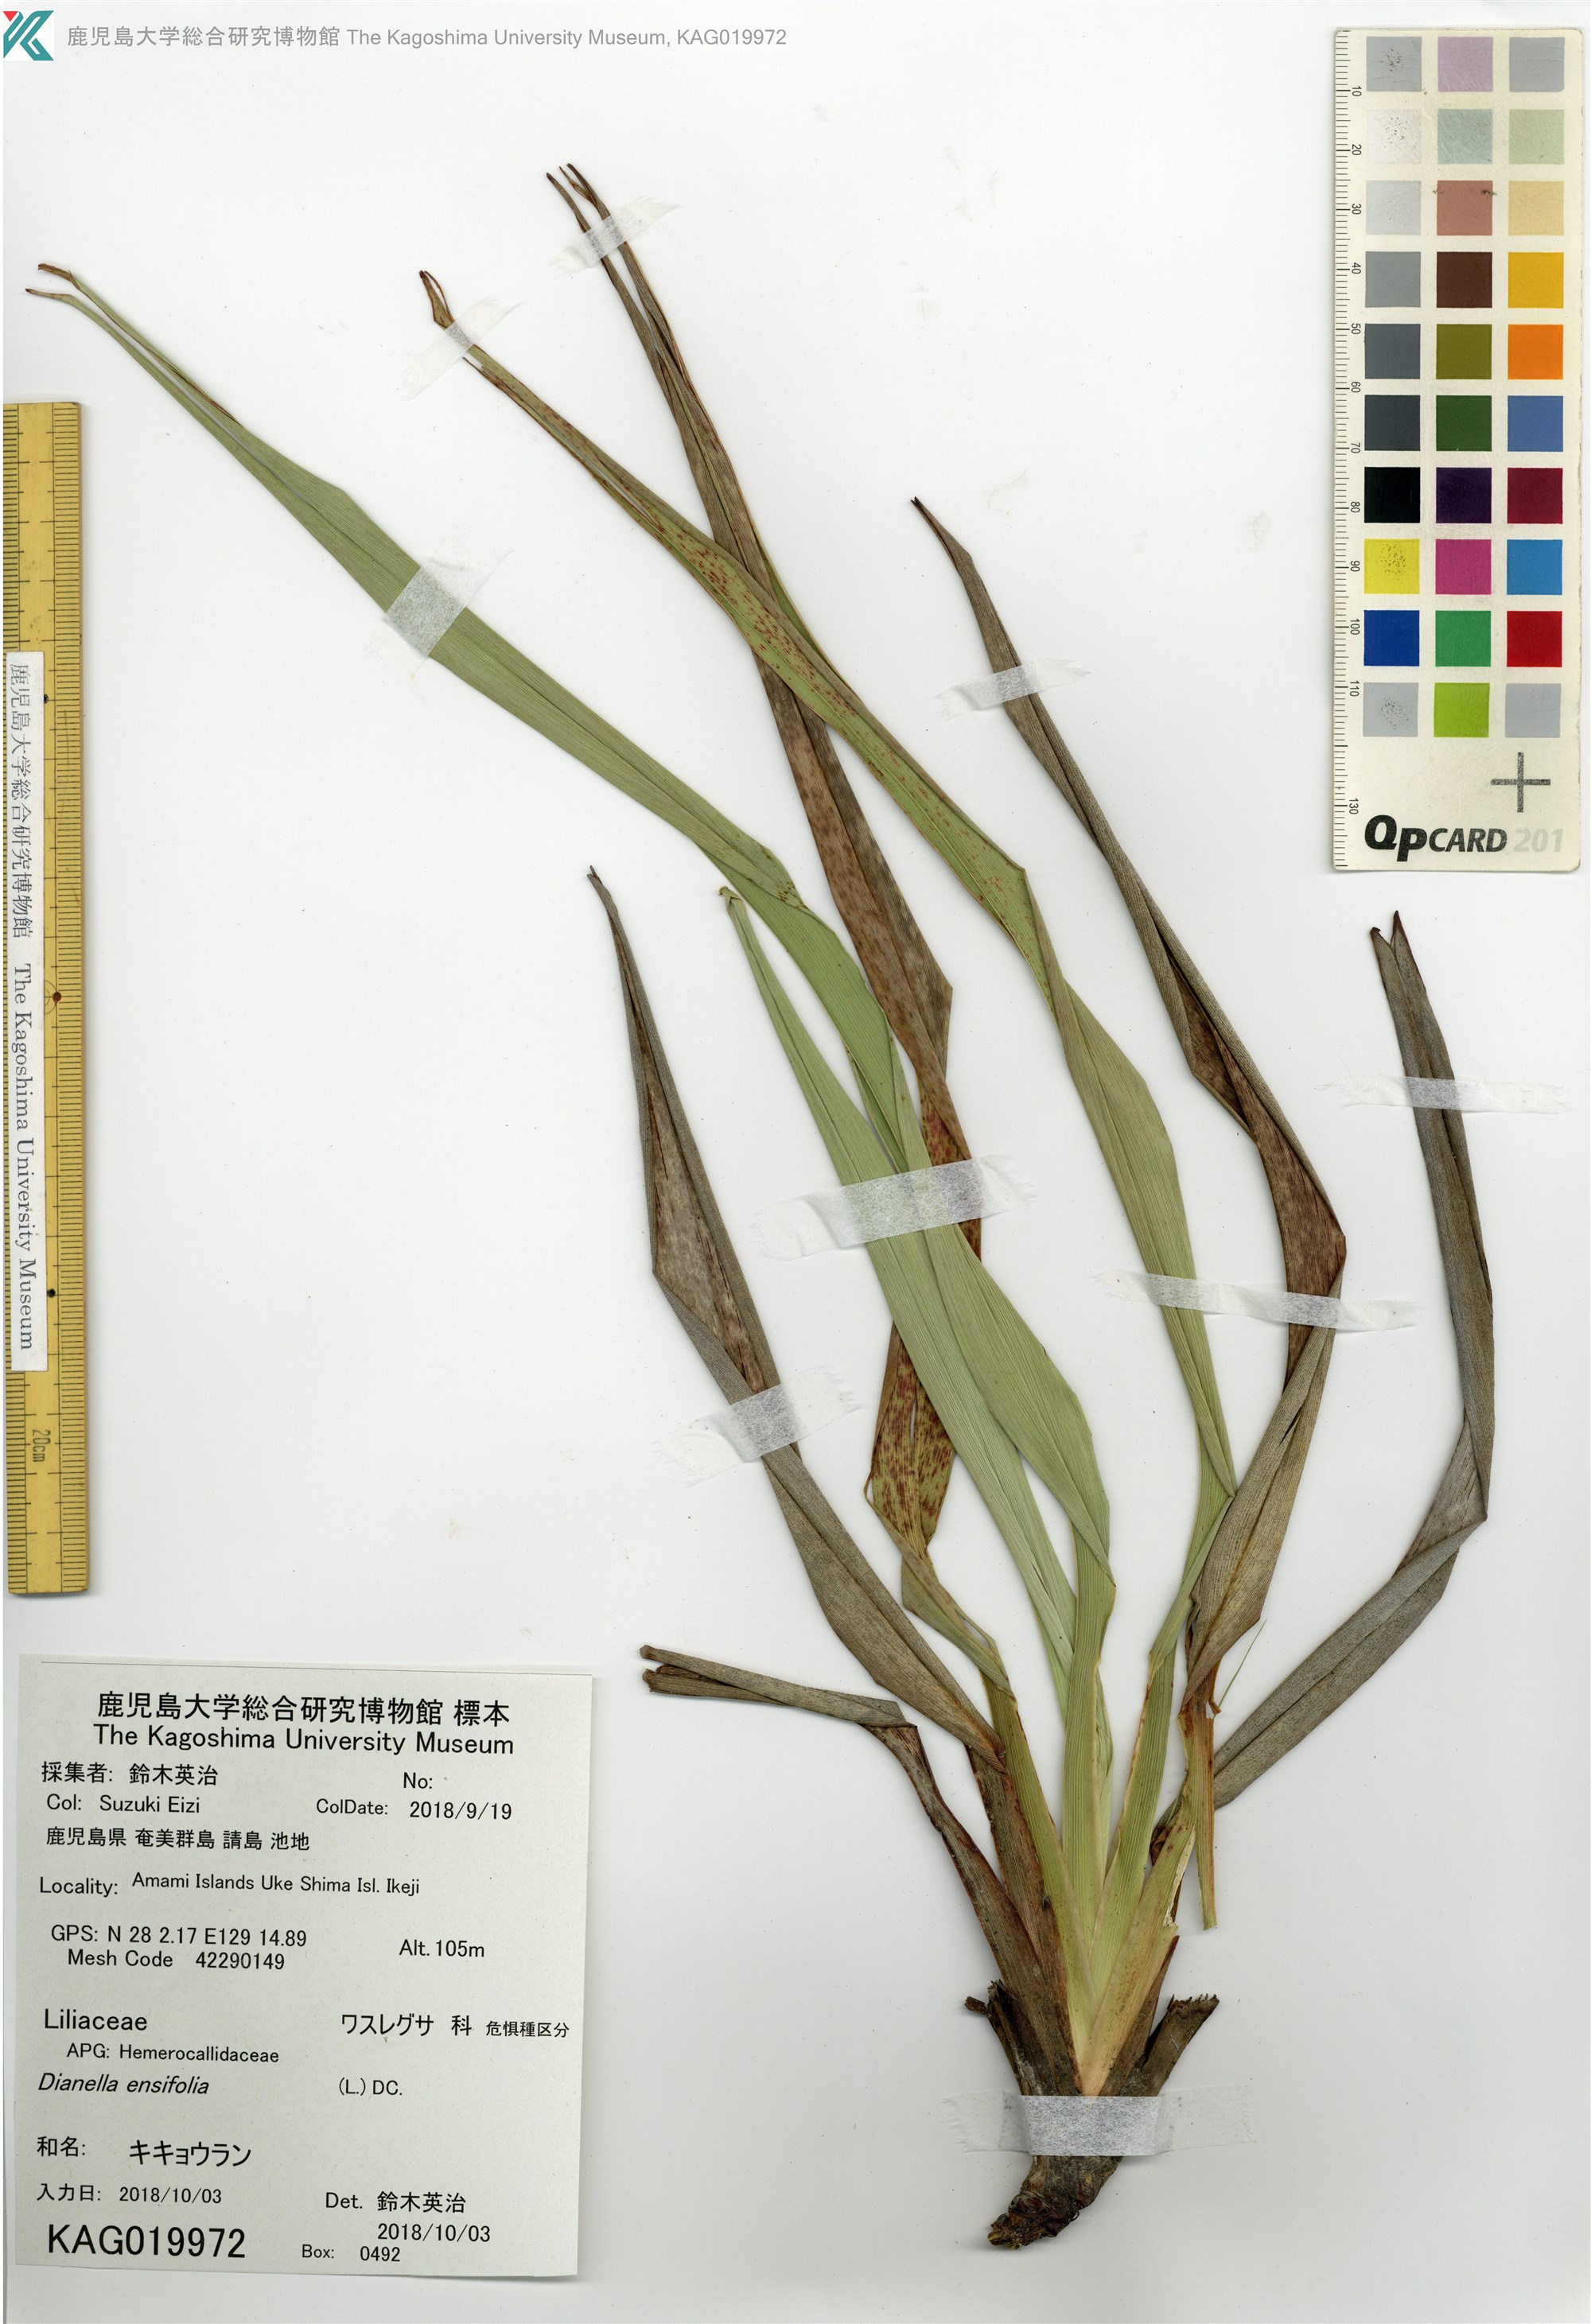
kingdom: Plantae
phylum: Tracheophyta
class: Liliopsida
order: Asparagales
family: Asphodelaceae
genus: Dianella
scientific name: Dianella ensifolia
